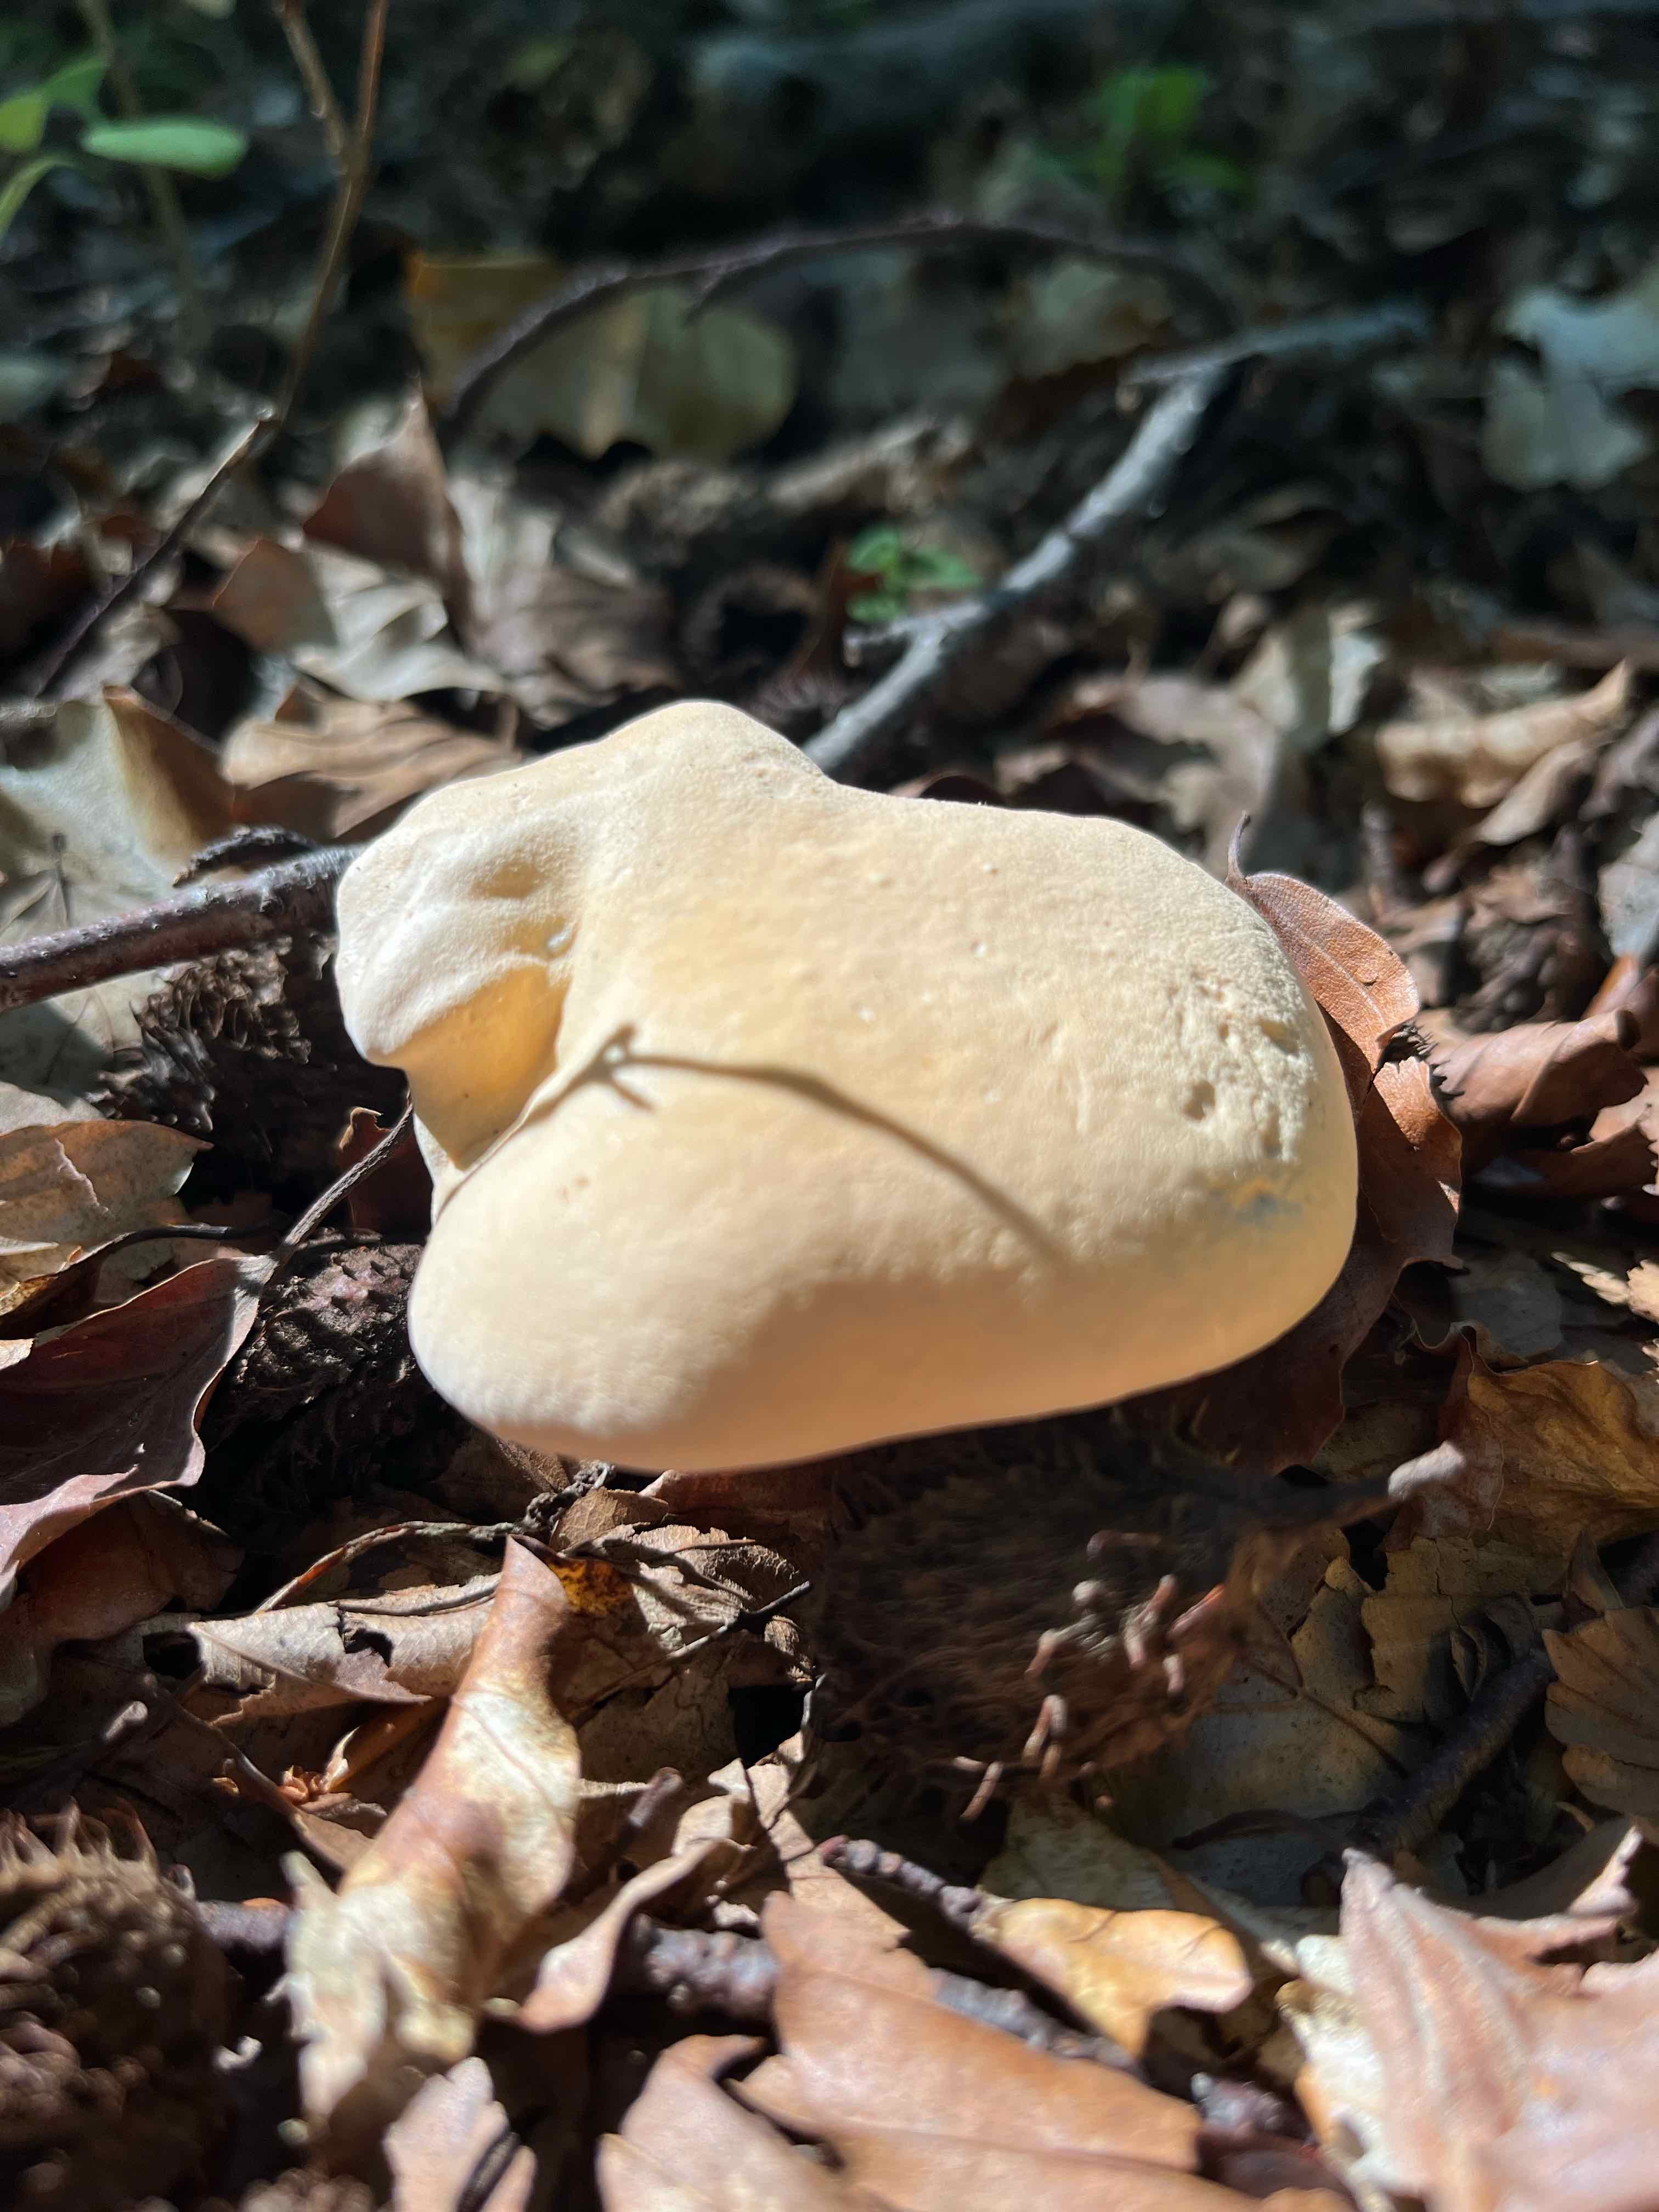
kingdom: Fungi
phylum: Basidiomycota
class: Agaricomycetes
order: Cantharellales
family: Hydnaceae
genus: Hydnum
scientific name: Hydnum
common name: pigsvamp
